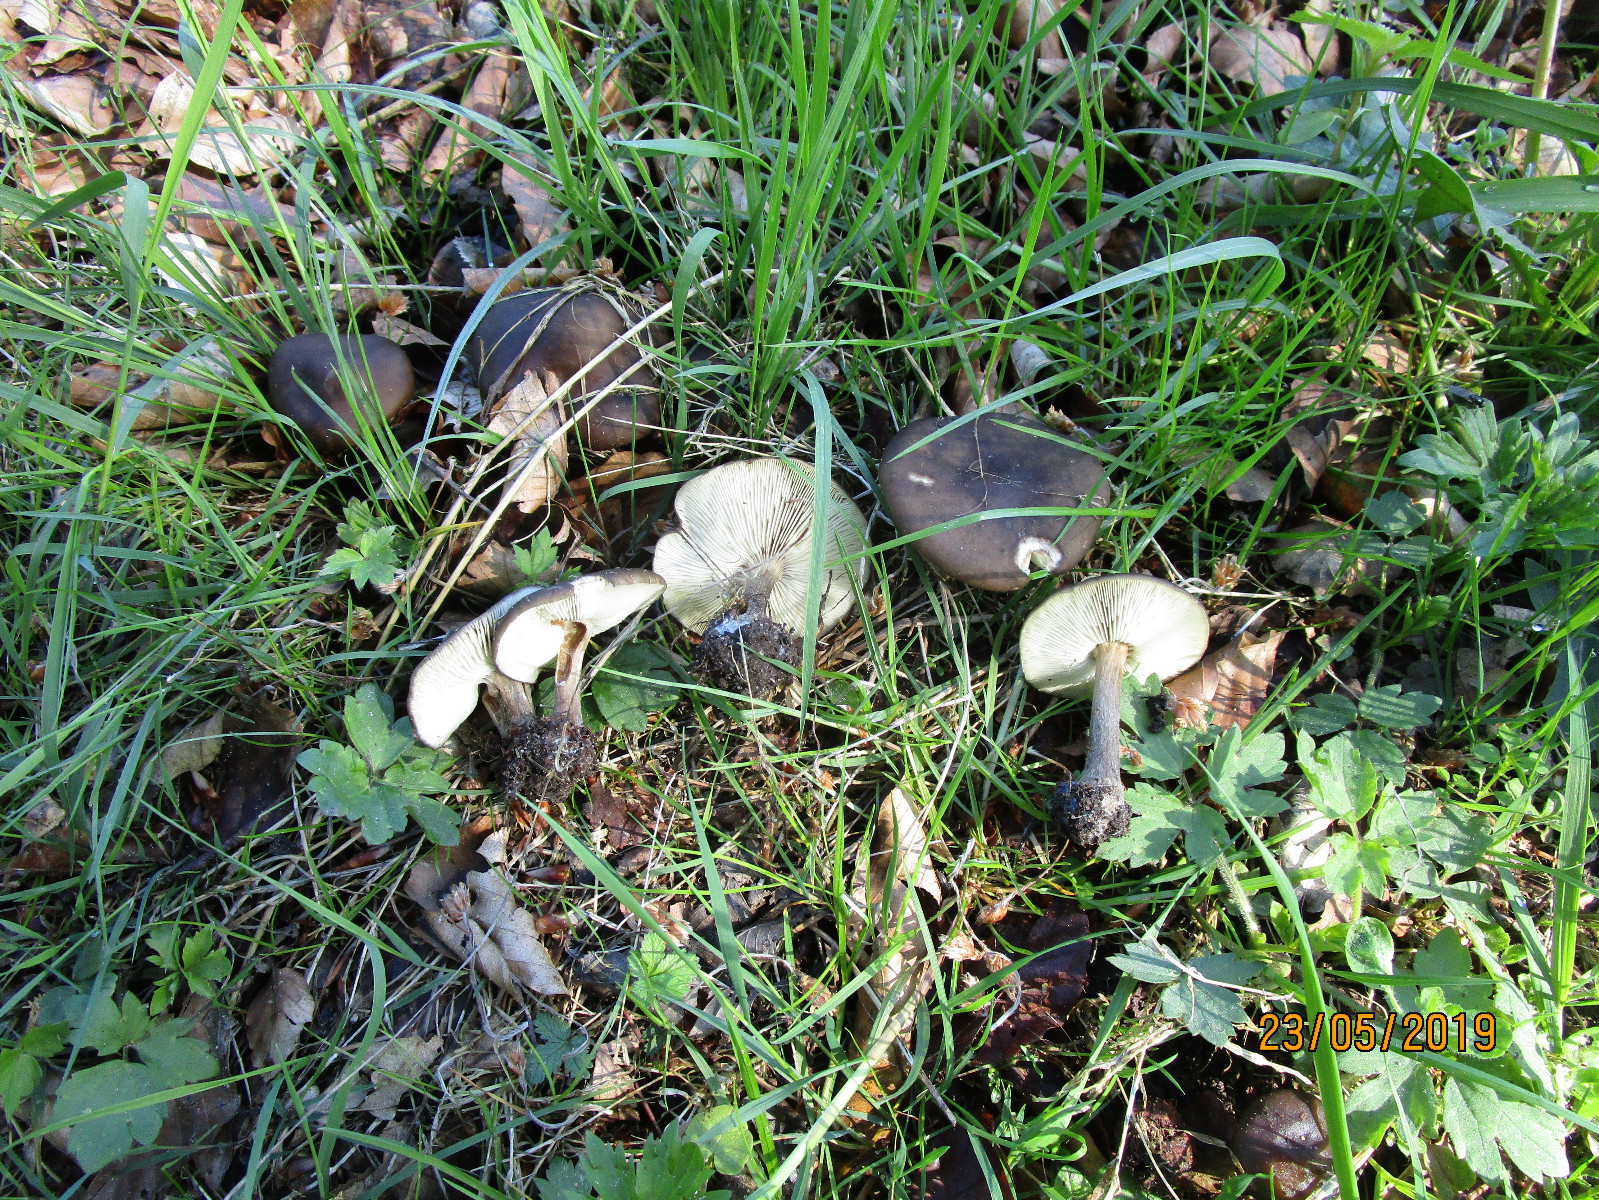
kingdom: Fungi
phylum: Basidiomycota
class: Agaricomycetes
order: Agaricales
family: Tricholomataceae
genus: Melanoleuca
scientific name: Melanoleuca
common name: munkehat
